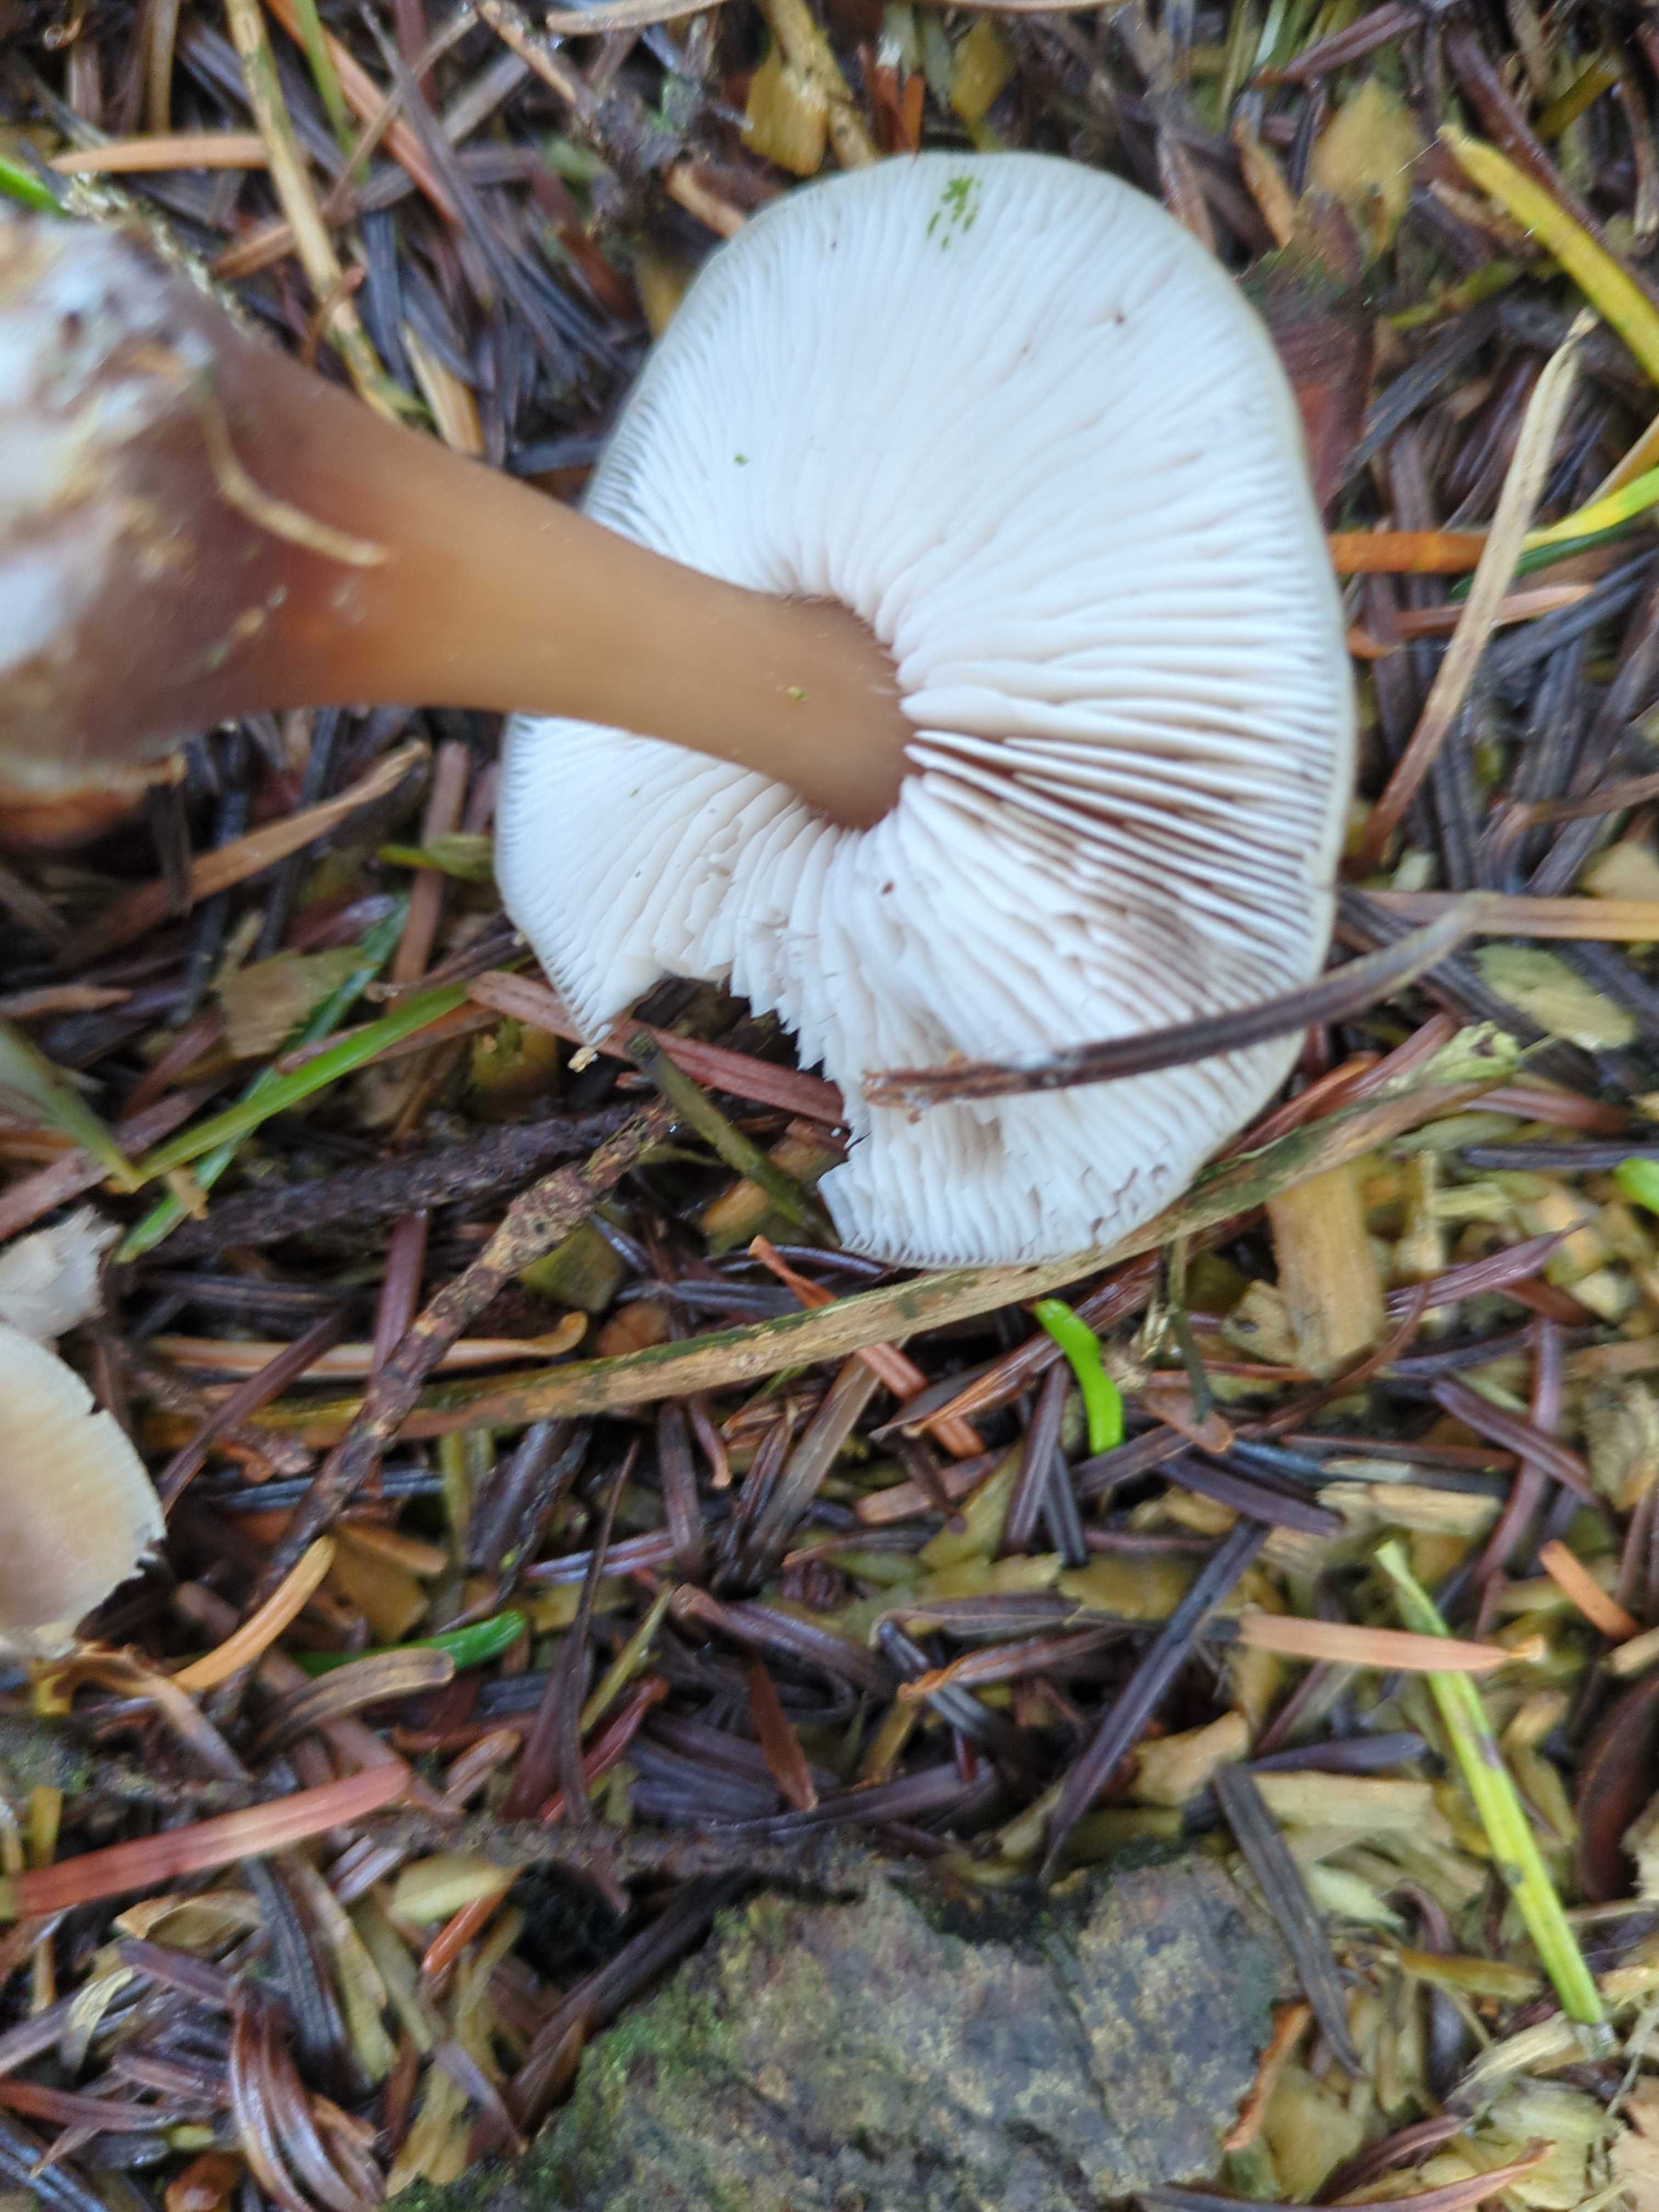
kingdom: Fungi
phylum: Basidiomycota
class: Agaricomycetes
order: Agaricales
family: Omphalotaceae
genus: Rhodocollybia
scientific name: Rhodocollybia
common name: fladhat
